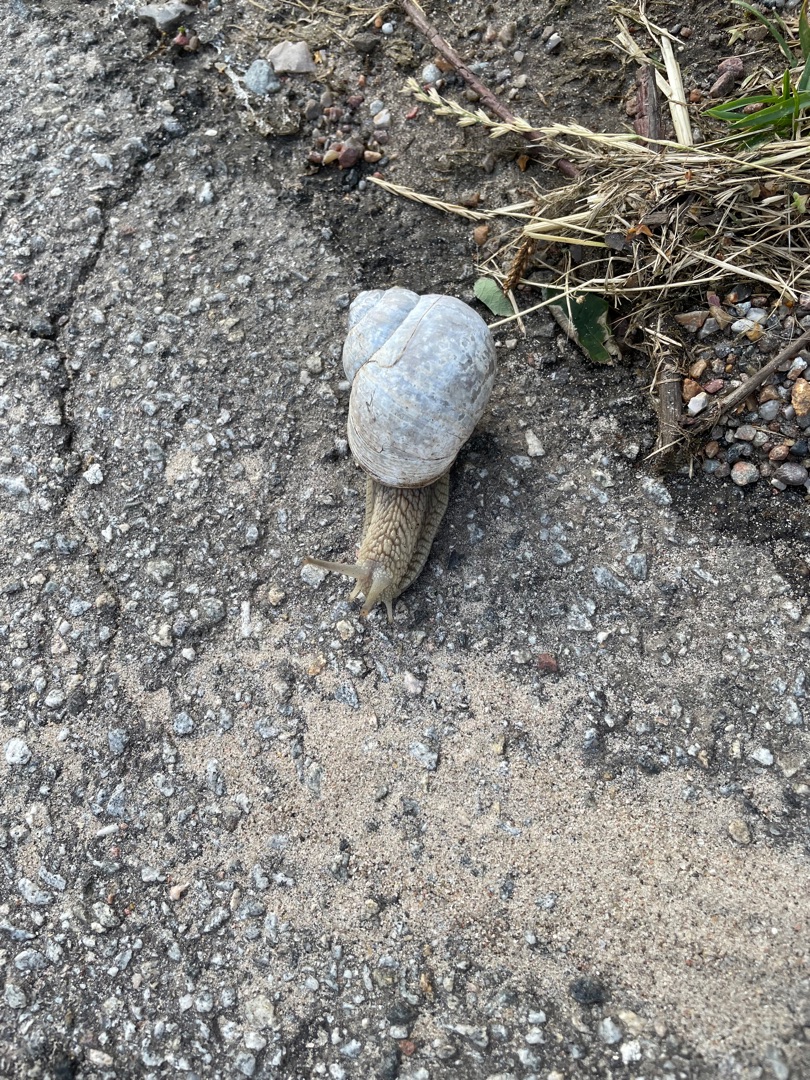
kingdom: Animalia
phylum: Mollusca
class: Gastropoda
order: Stylommatophora
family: Helicidae
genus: Helix
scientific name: Helix pomatia
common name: Vinbjergsnegl
